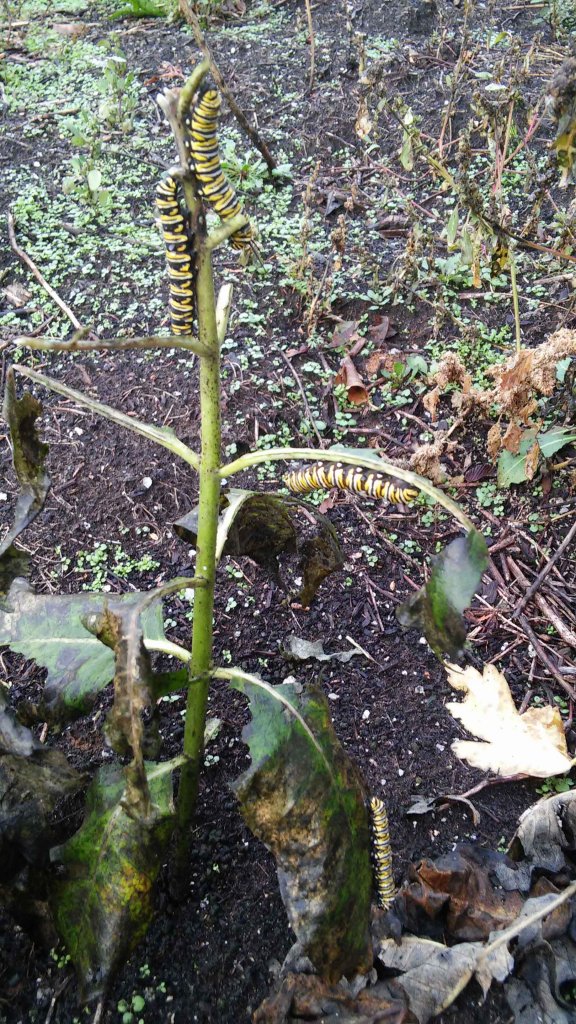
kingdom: Animalia
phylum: Arthropoda
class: Insecta
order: Lepidoptera
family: Nymphalidae
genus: Danaus
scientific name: Danaus plexippus
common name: Monarch
